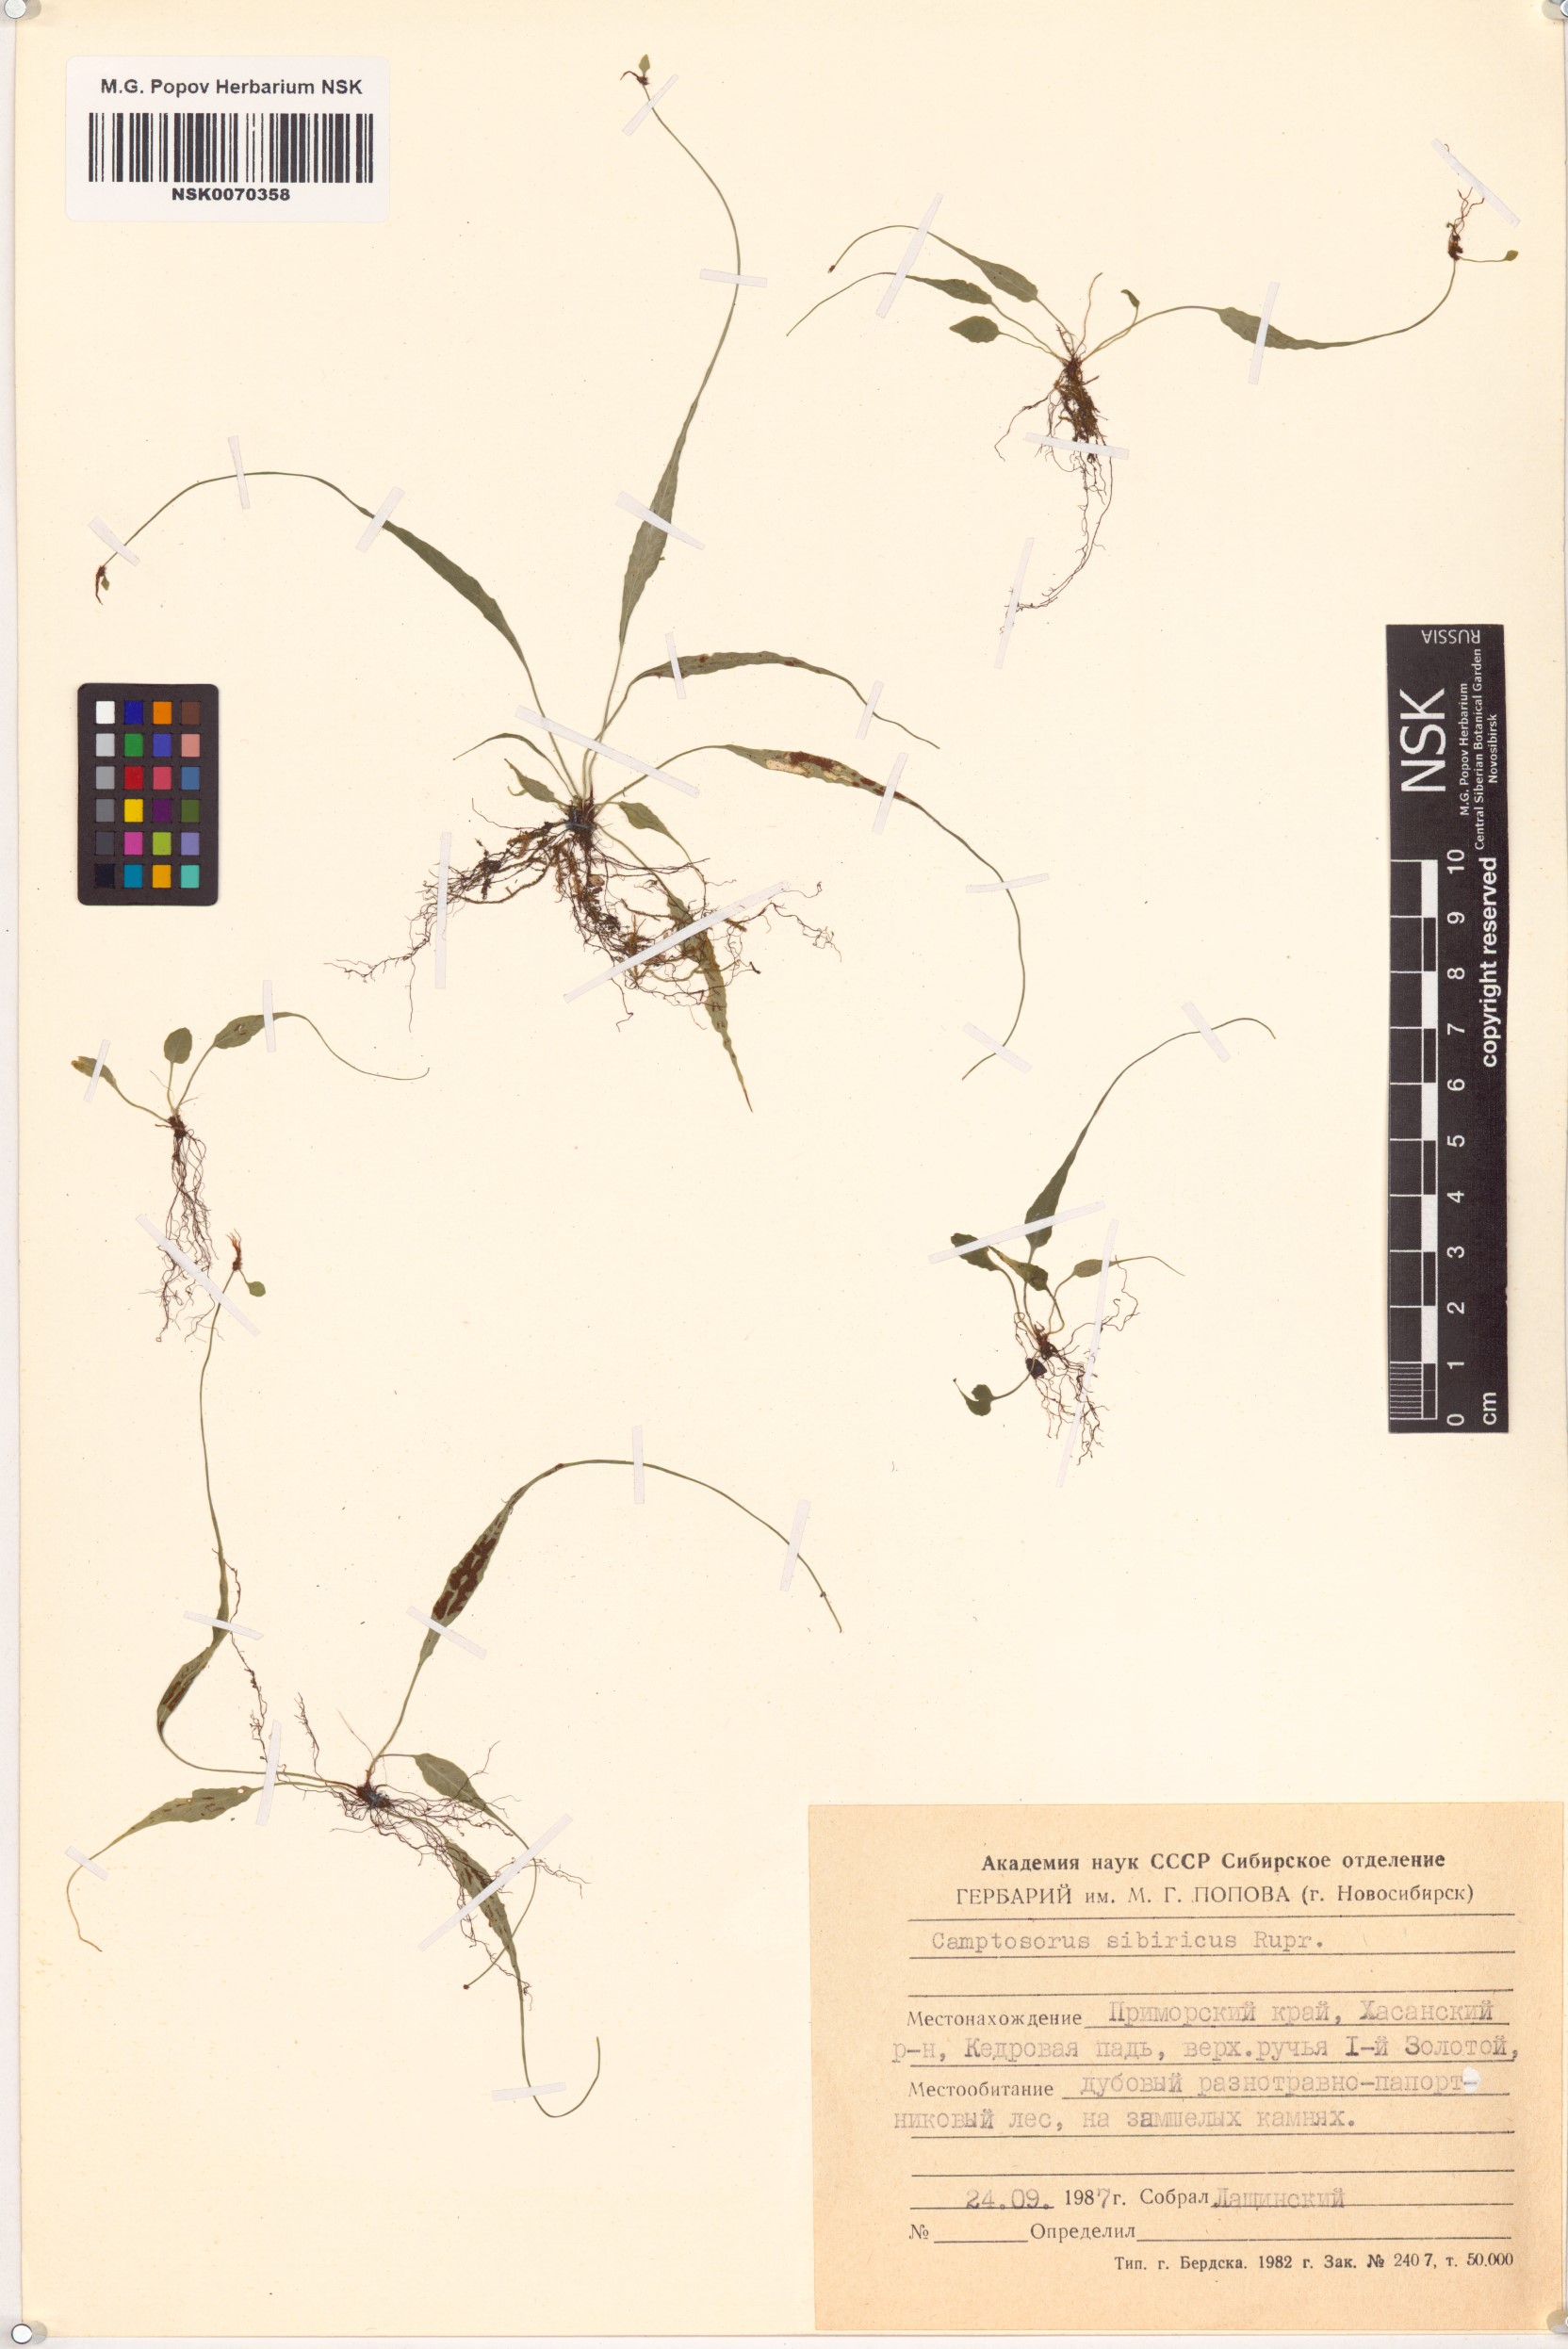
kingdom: Plantae
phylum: Tracheophyta
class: Polypodiopsida
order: Polypodiales
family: Aspleniaceae
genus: Asplenium
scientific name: Asplenium ruprechtii
